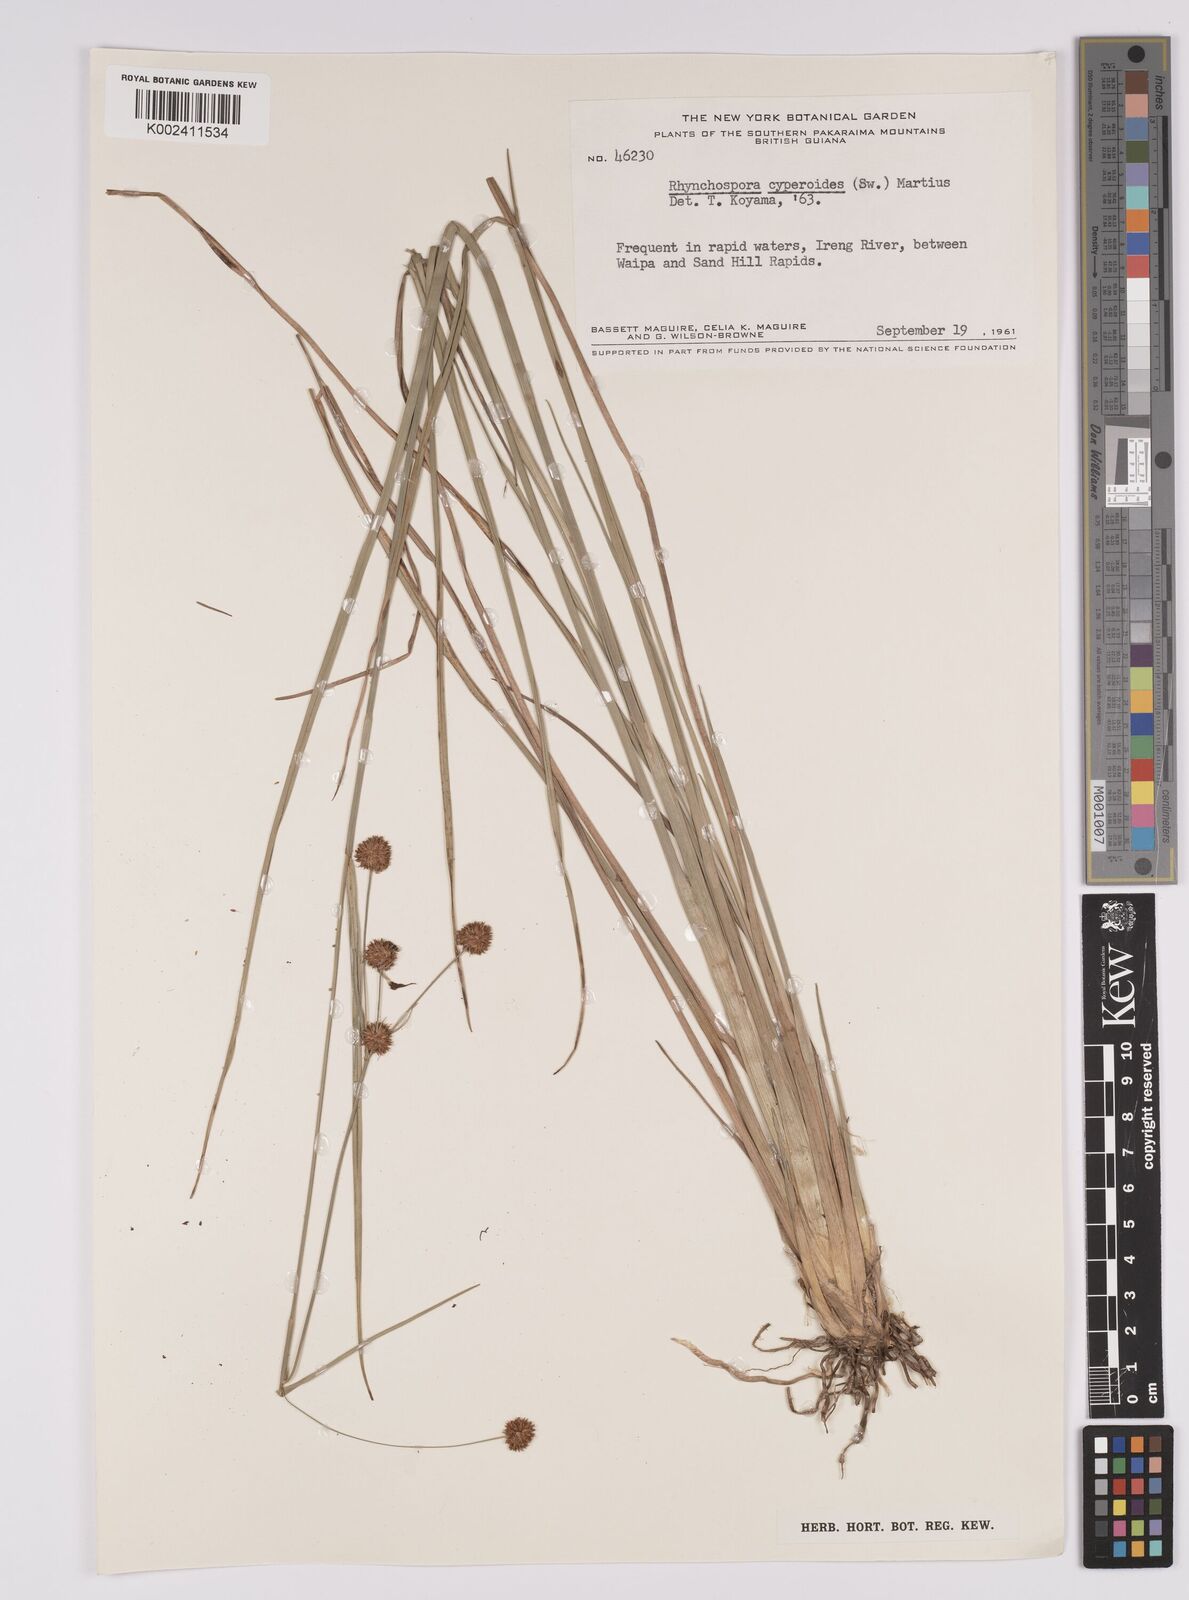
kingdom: Plantae
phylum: Tracheophyta
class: Liliopsida
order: Poales
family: Cyperaceae
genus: Rhynchospora
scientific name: Rhynchospora holoschoenoides
